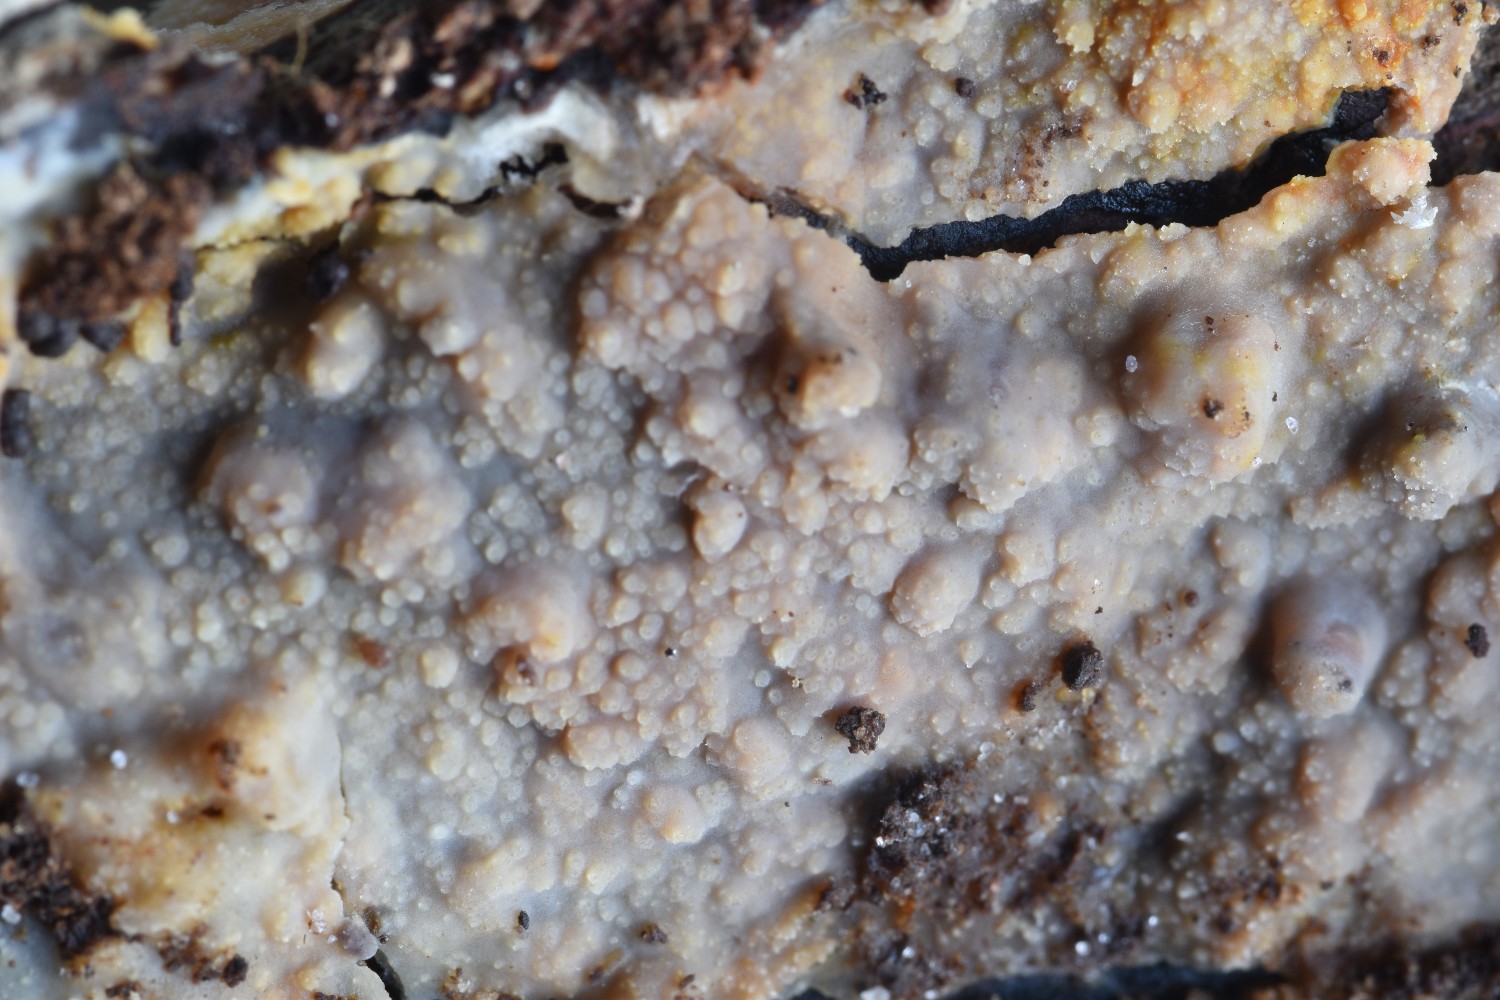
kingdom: Fungi
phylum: Basidiomycota
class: Agaricomycetes
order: Polyporales
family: Meruliaceae
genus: Cytidiella
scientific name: Cytidiella albida
